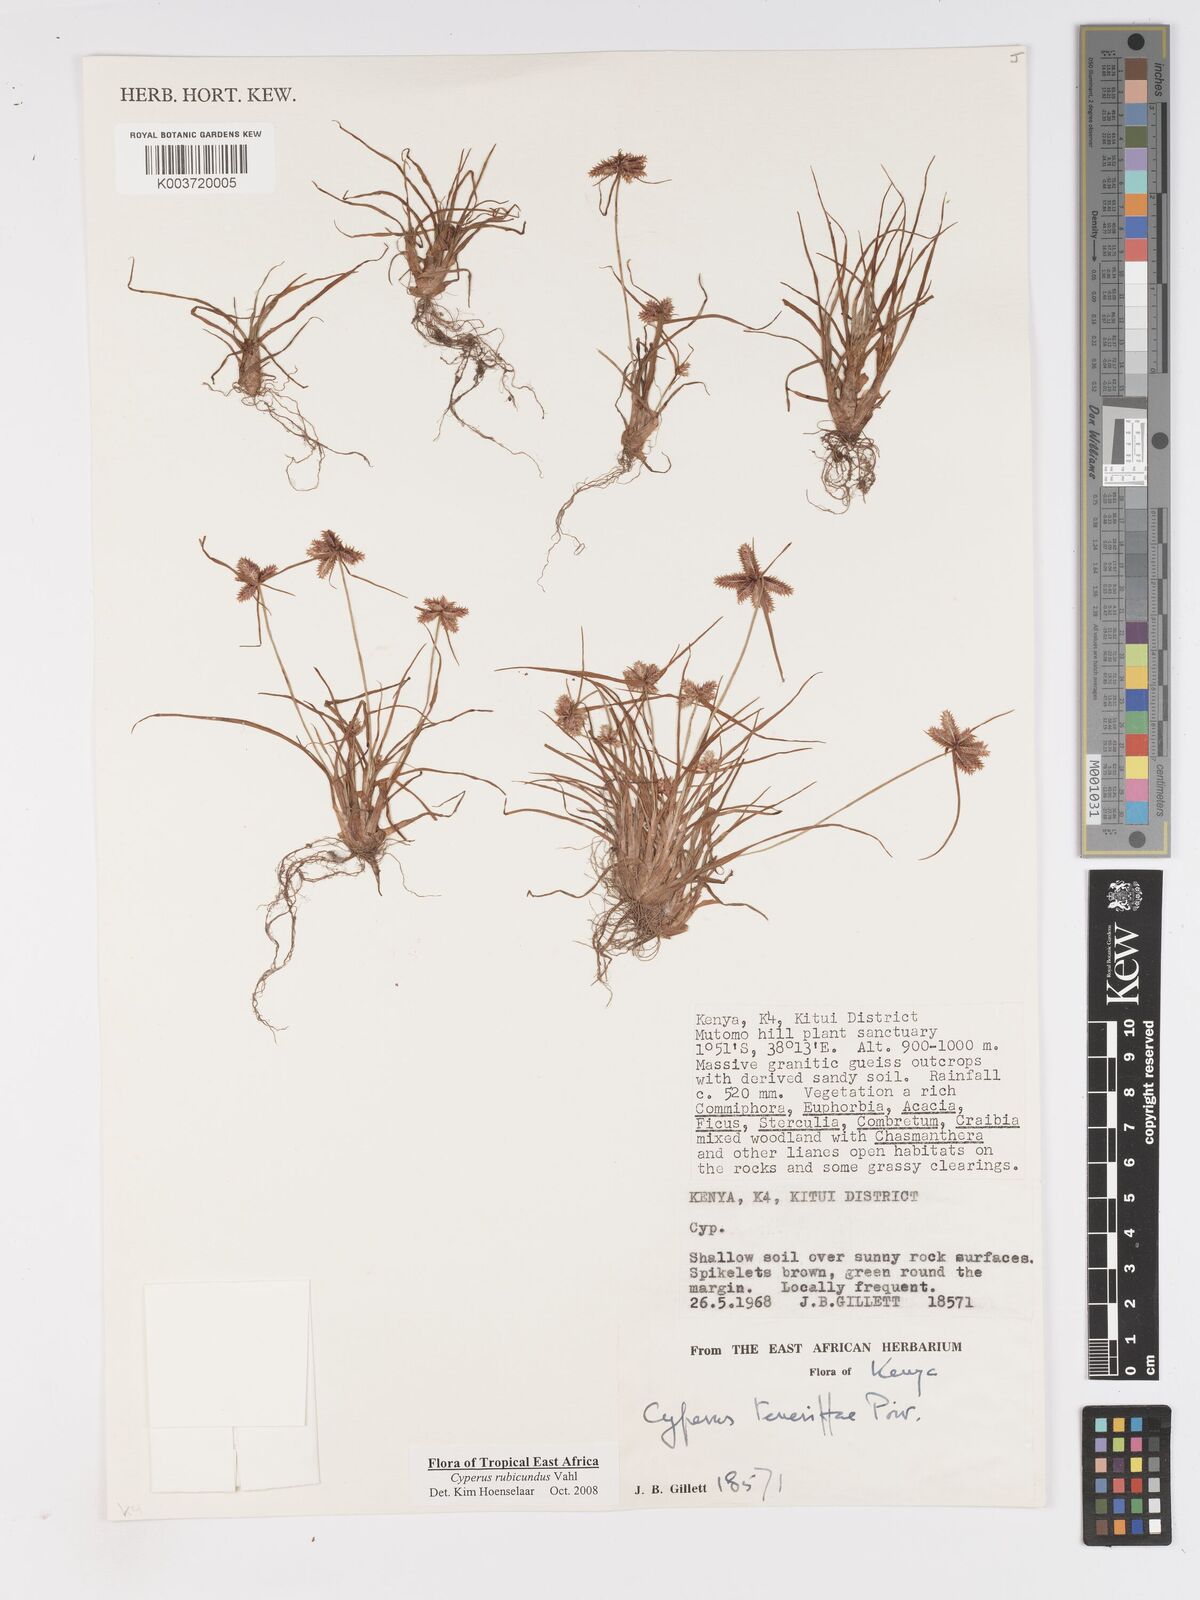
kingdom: Plantae
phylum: Tracheophyta
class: Liliopsida
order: Poales
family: Cyperaceae
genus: Cyperus
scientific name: Cyperus rubicundus
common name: Coco-grass
